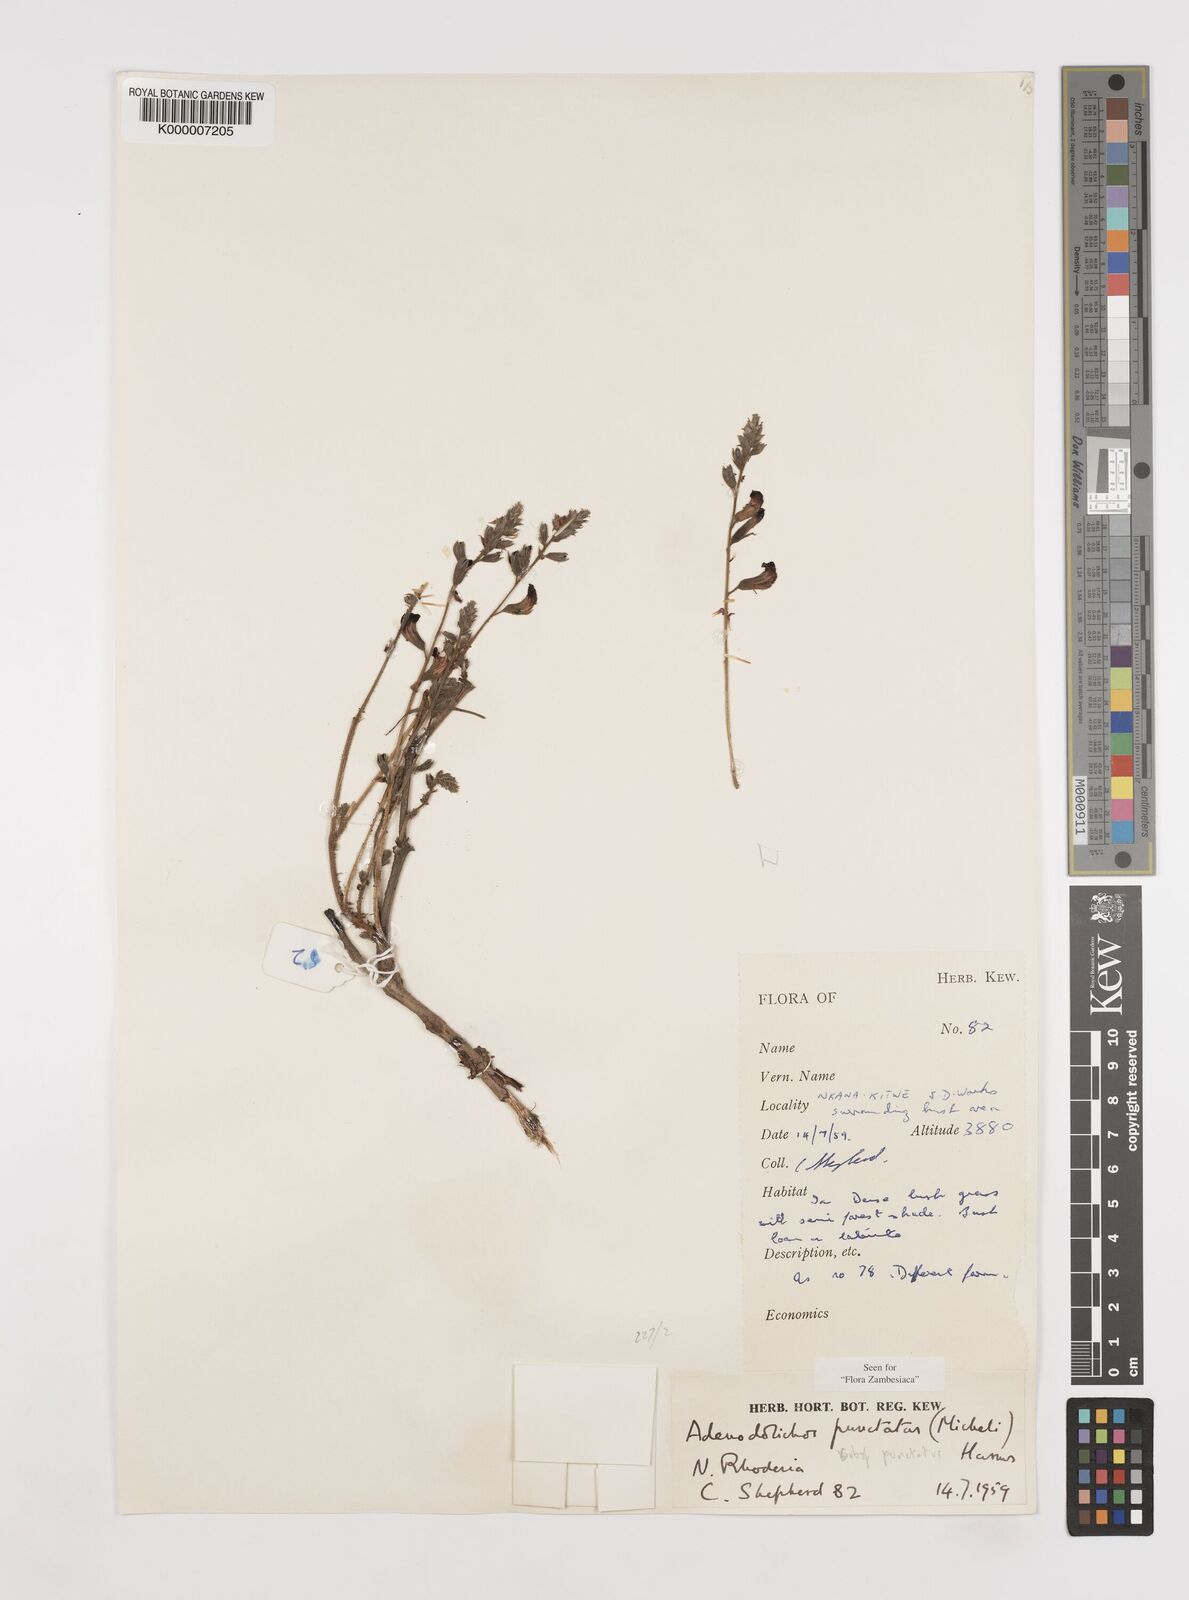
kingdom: Plantae
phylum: Tracheophyta
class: Magnoliopsida
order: Fabales
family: Fabaceae
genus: Adenodolichos
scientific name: Adenodolichos punctatus
